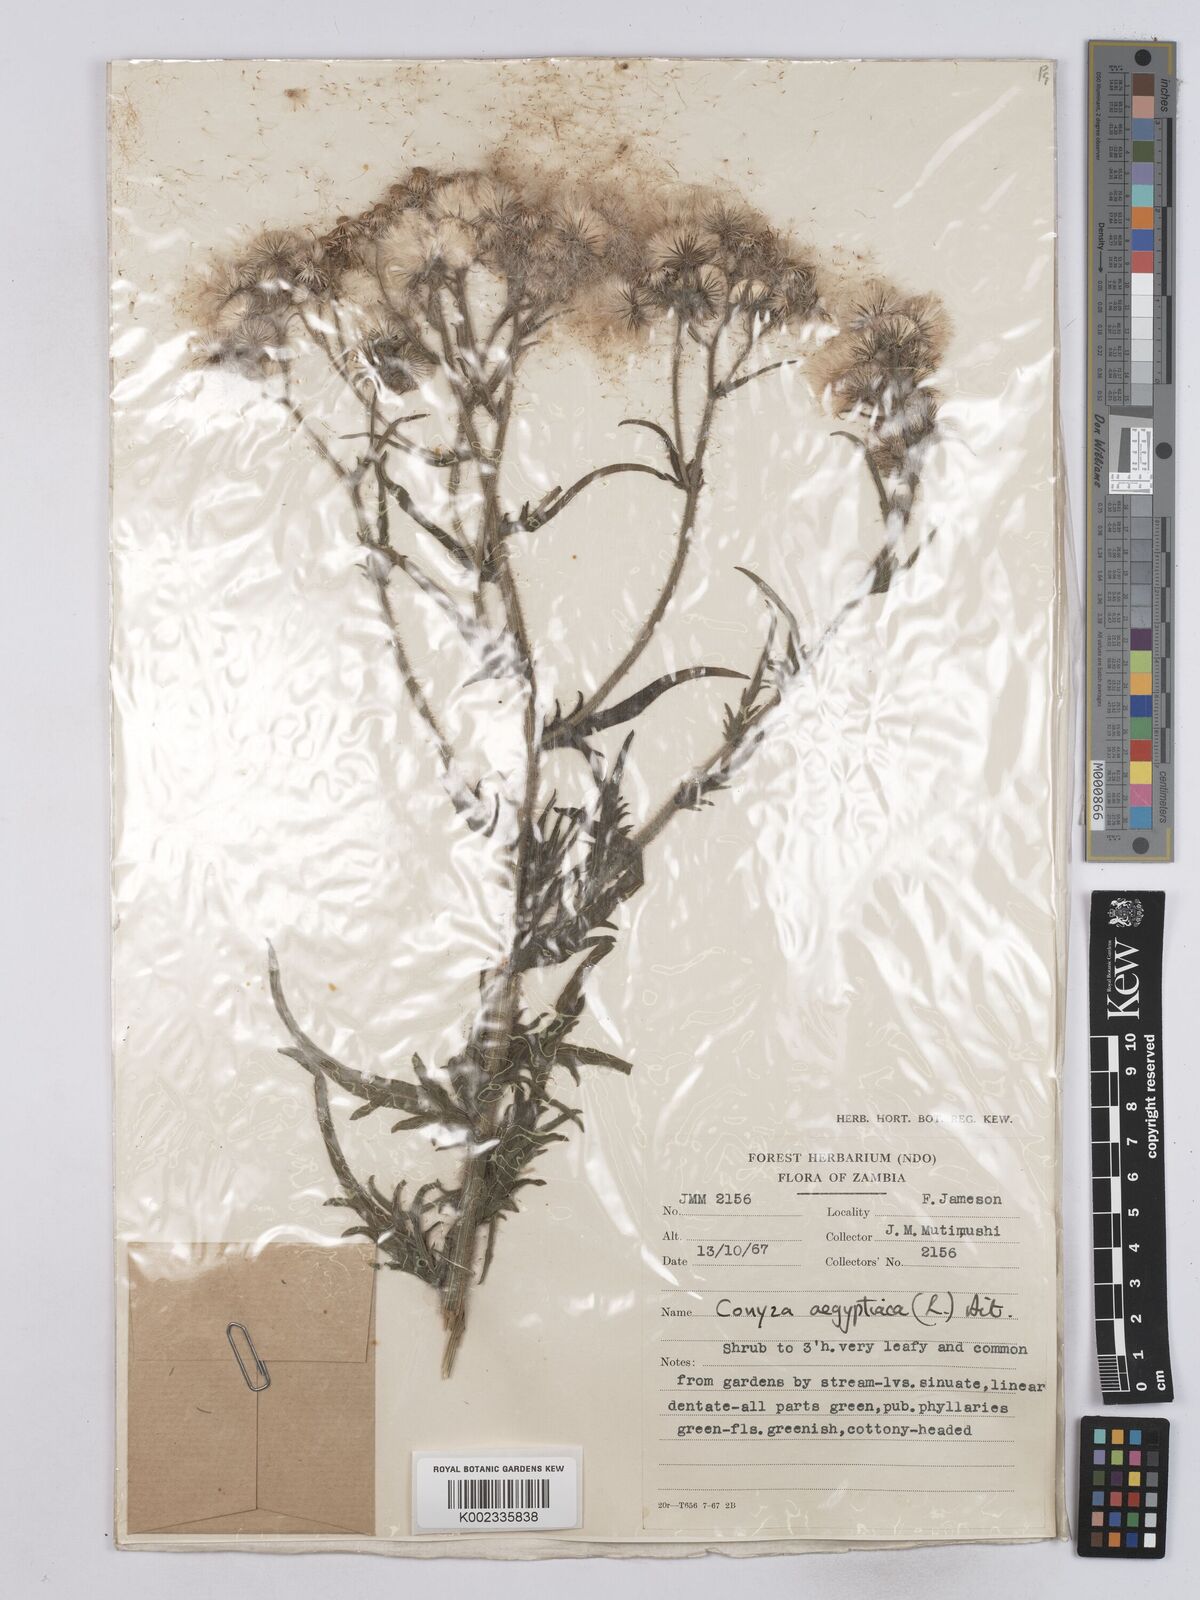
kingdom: Plantae
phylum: Tracheophyta
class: Magnoliopsida
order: Asterales
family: Asteraceae
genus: Nidorella
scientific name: Nidorella aegyptiaca
